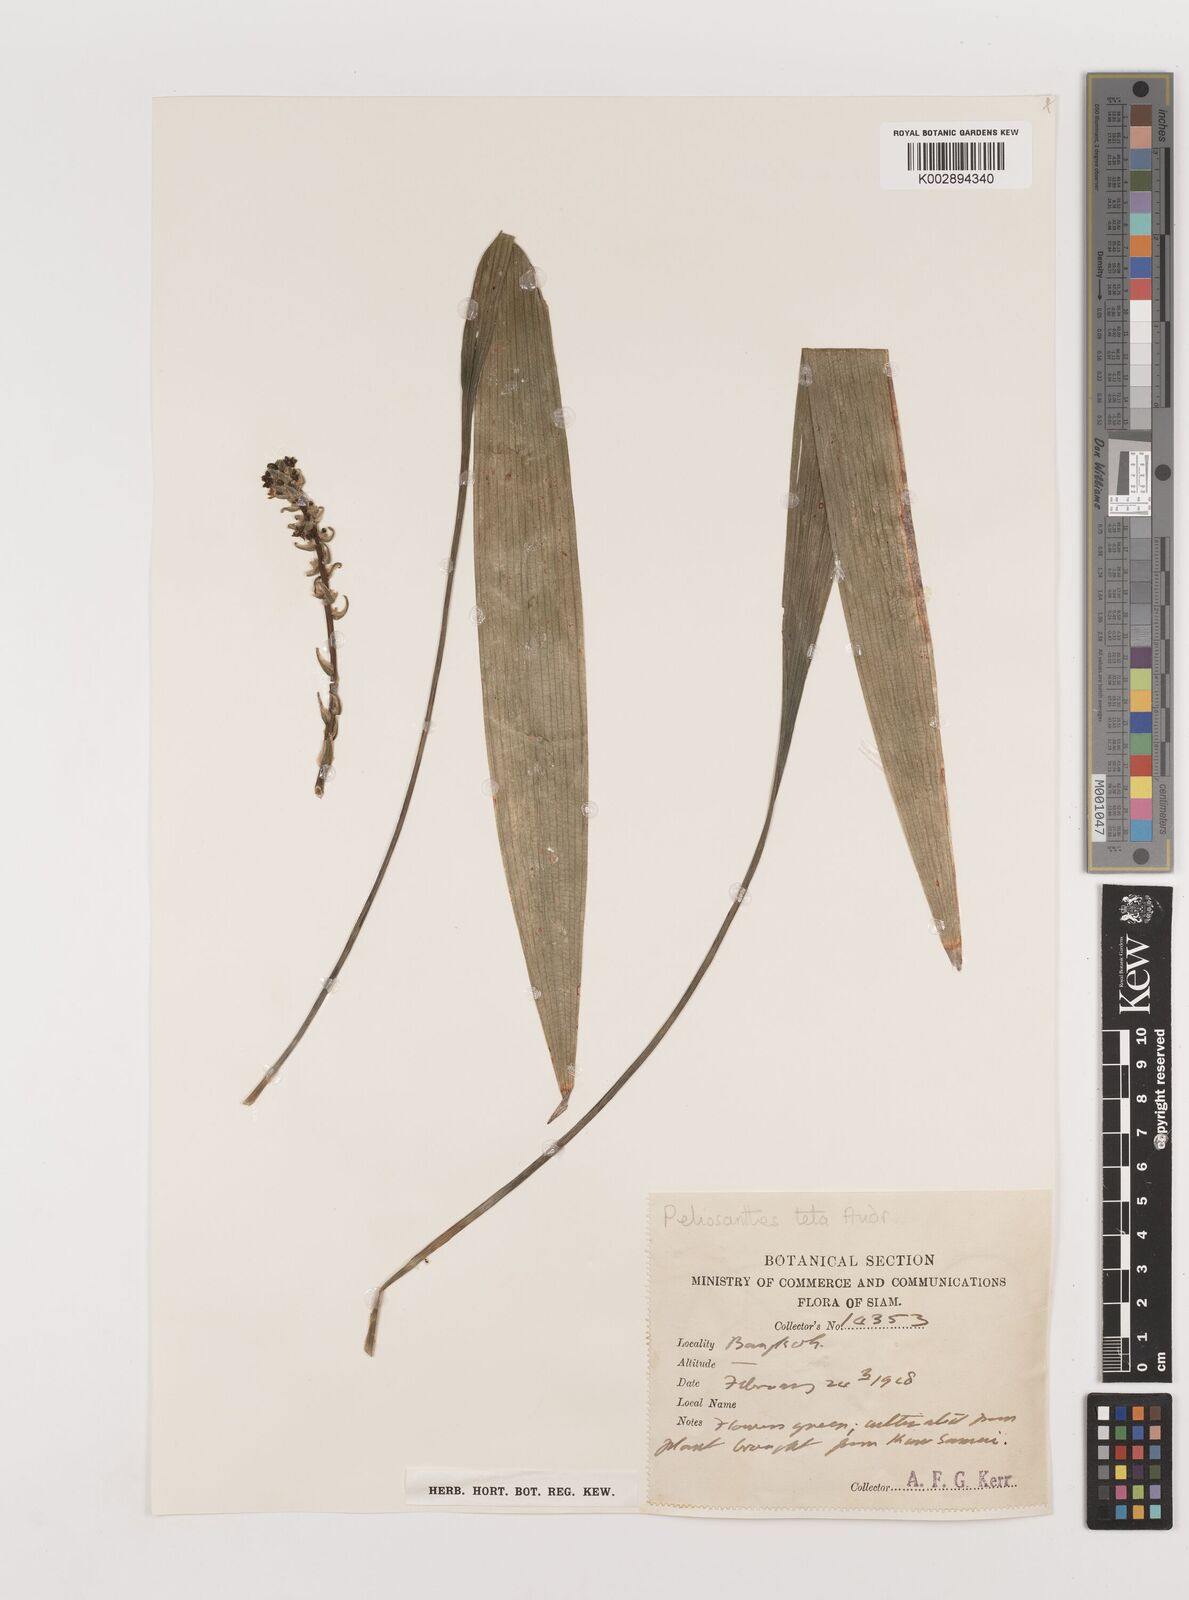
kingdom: Plantae
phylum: Tracheophyta
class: Liliopsida
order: Asparagales
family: Asparagaceae
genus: Peliosanthes
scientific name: Peliosanthes teta
